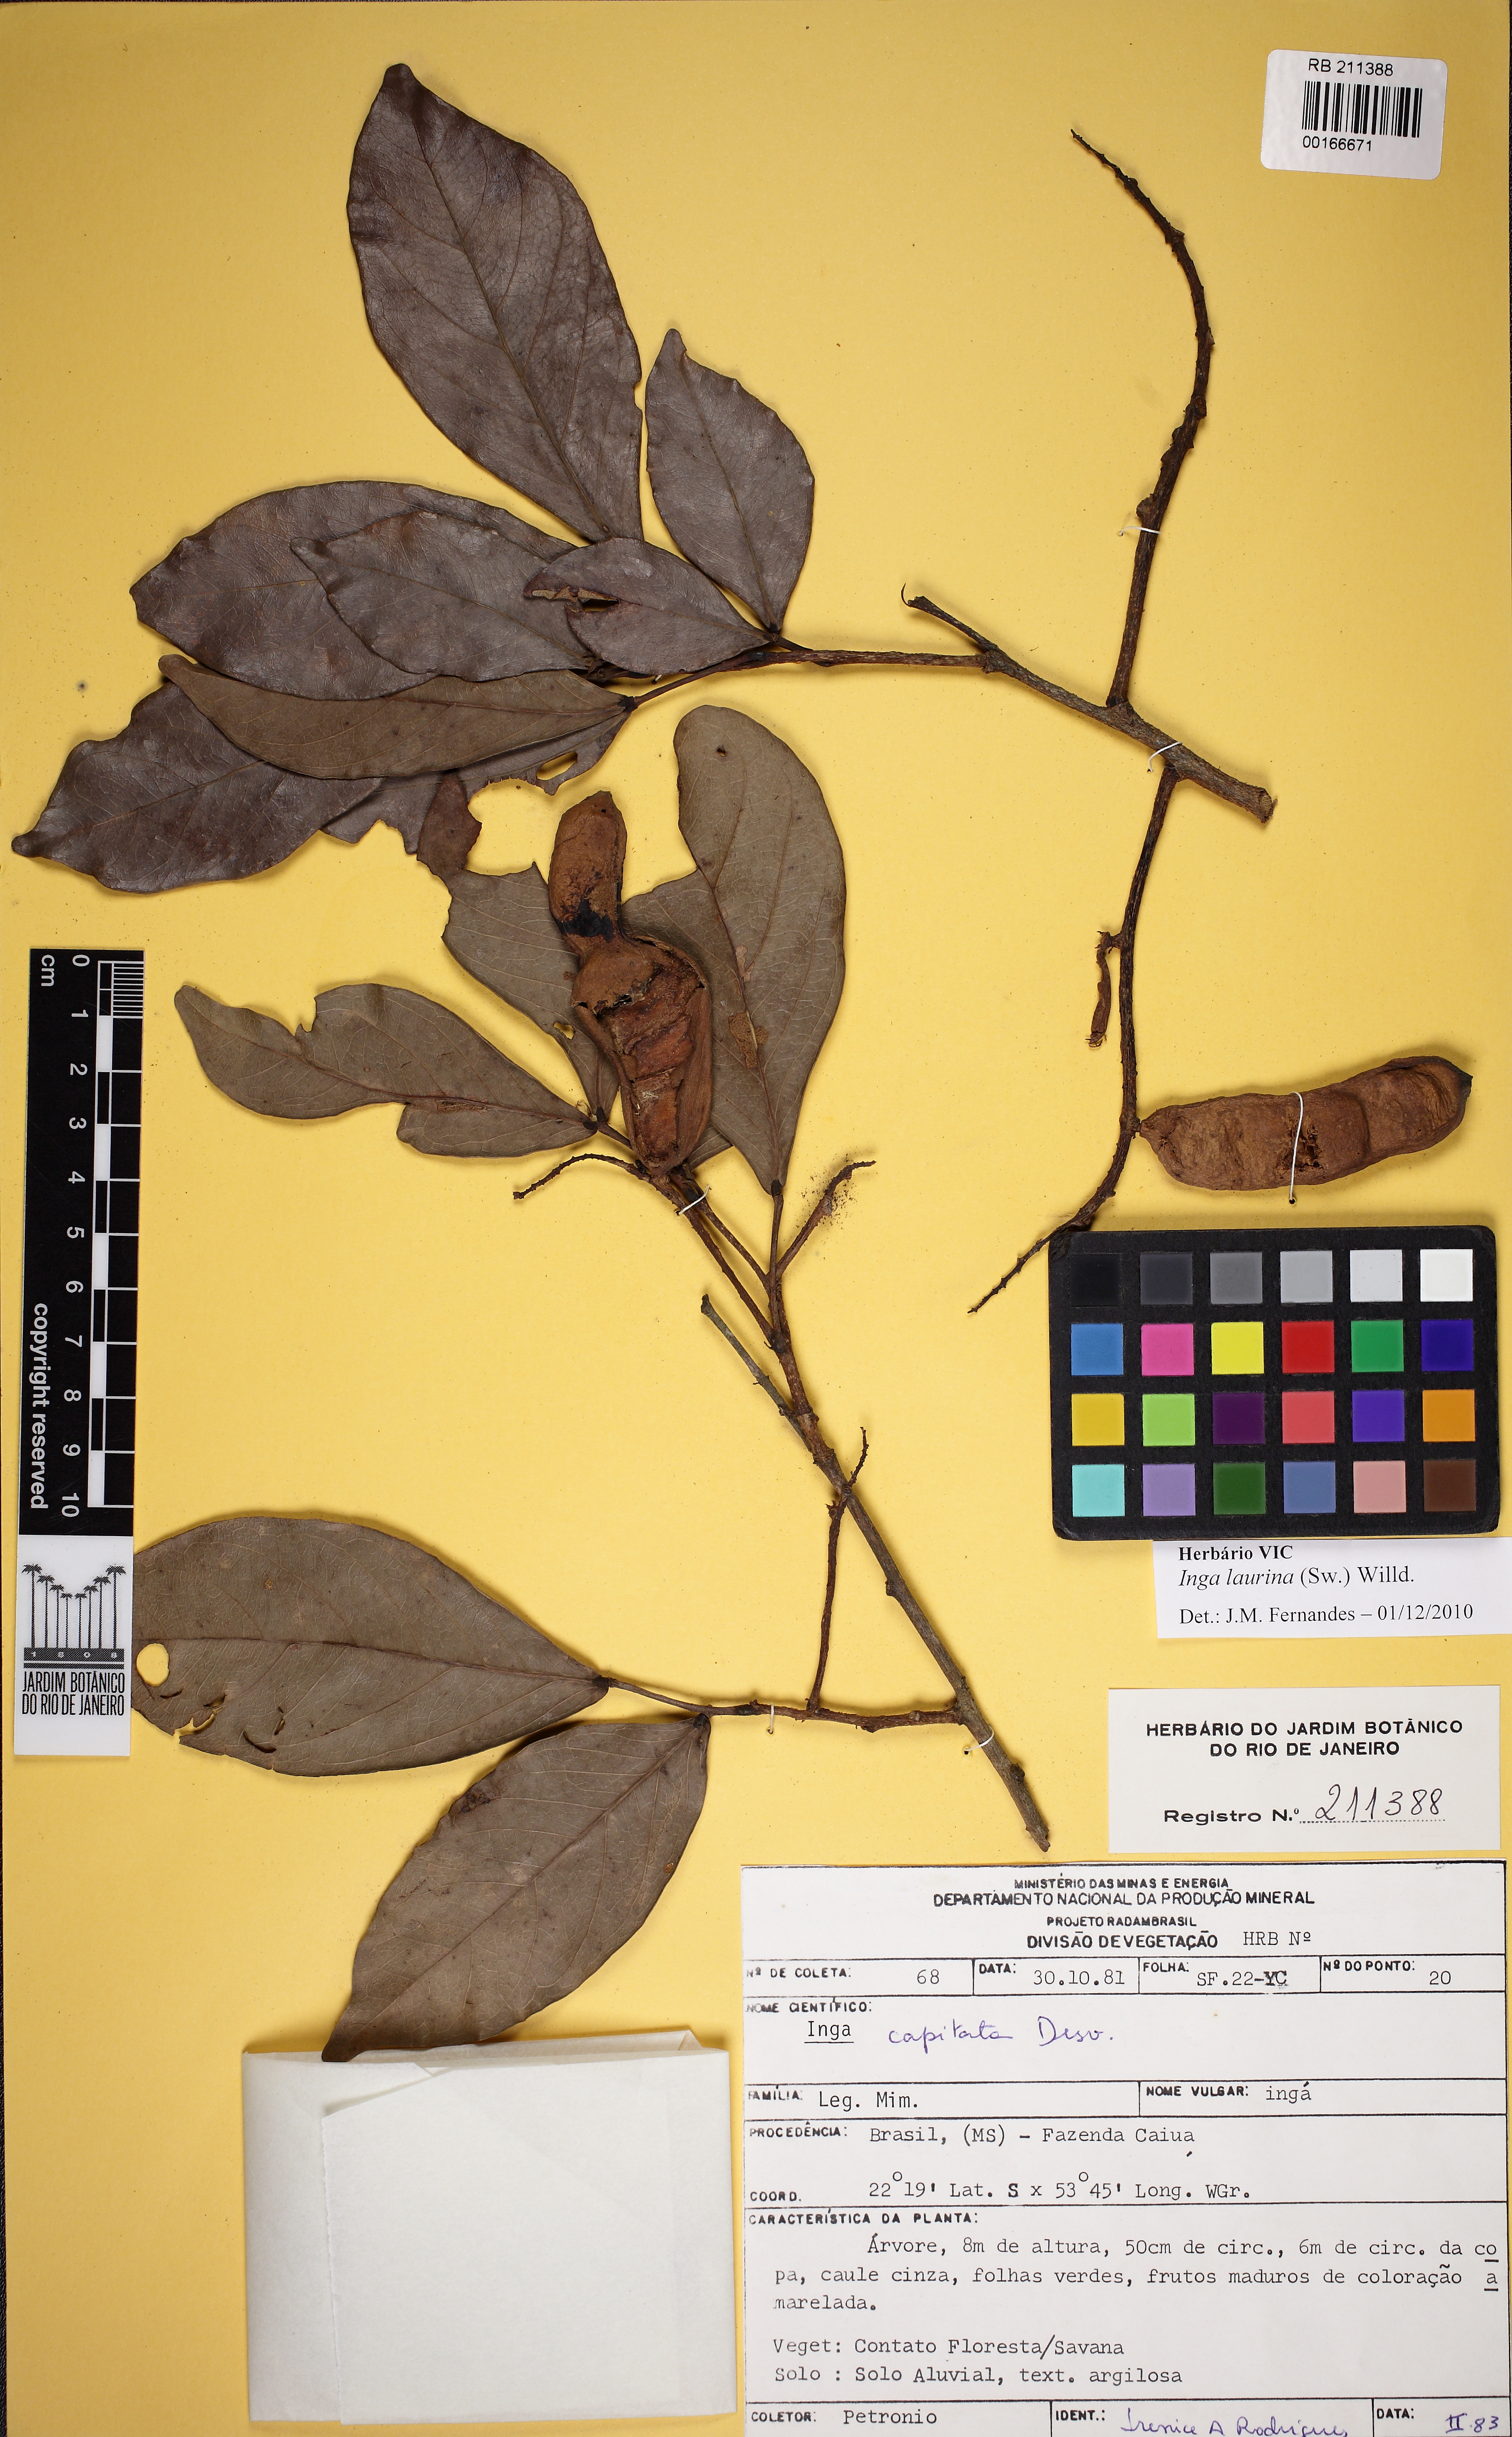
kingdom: Plantae
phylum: Tracheophyta
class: Magnoliopsida
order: Fabales
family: Fabaceae
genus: Inga
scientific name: Inga laurina
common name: Red wood
